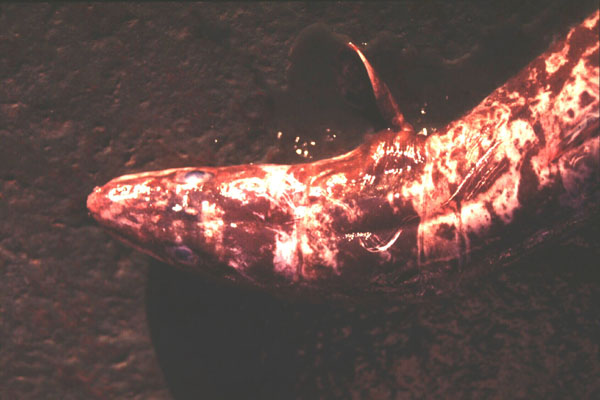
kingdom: Animalia
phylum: Chordata
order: Anguilliformes
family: Congridae
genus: Conger
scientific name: Conger wilsoni
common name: Cape conger
